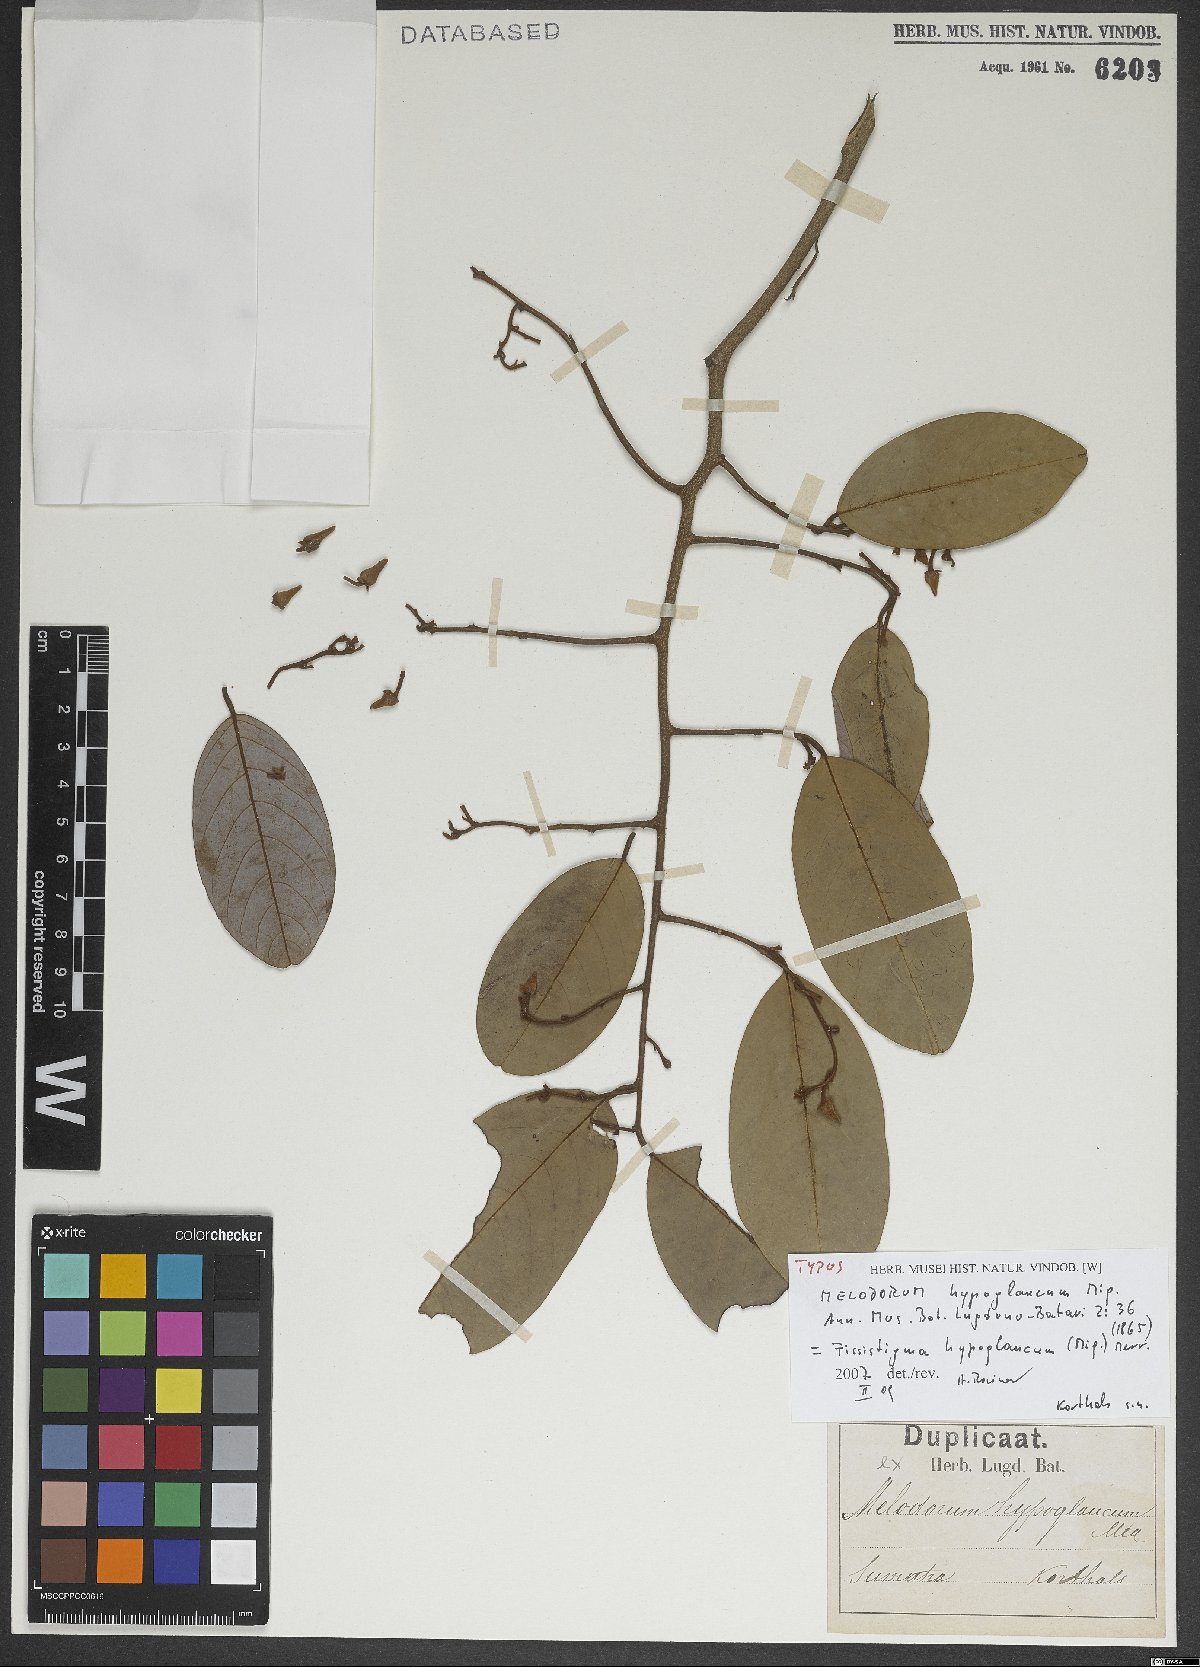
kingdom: Plantae
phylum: Tracheophyta
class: Magnoliopsida
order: Magnoliales
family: Annonaceae
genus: Fissistigma
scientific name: Fissistigma hypoglaucum
